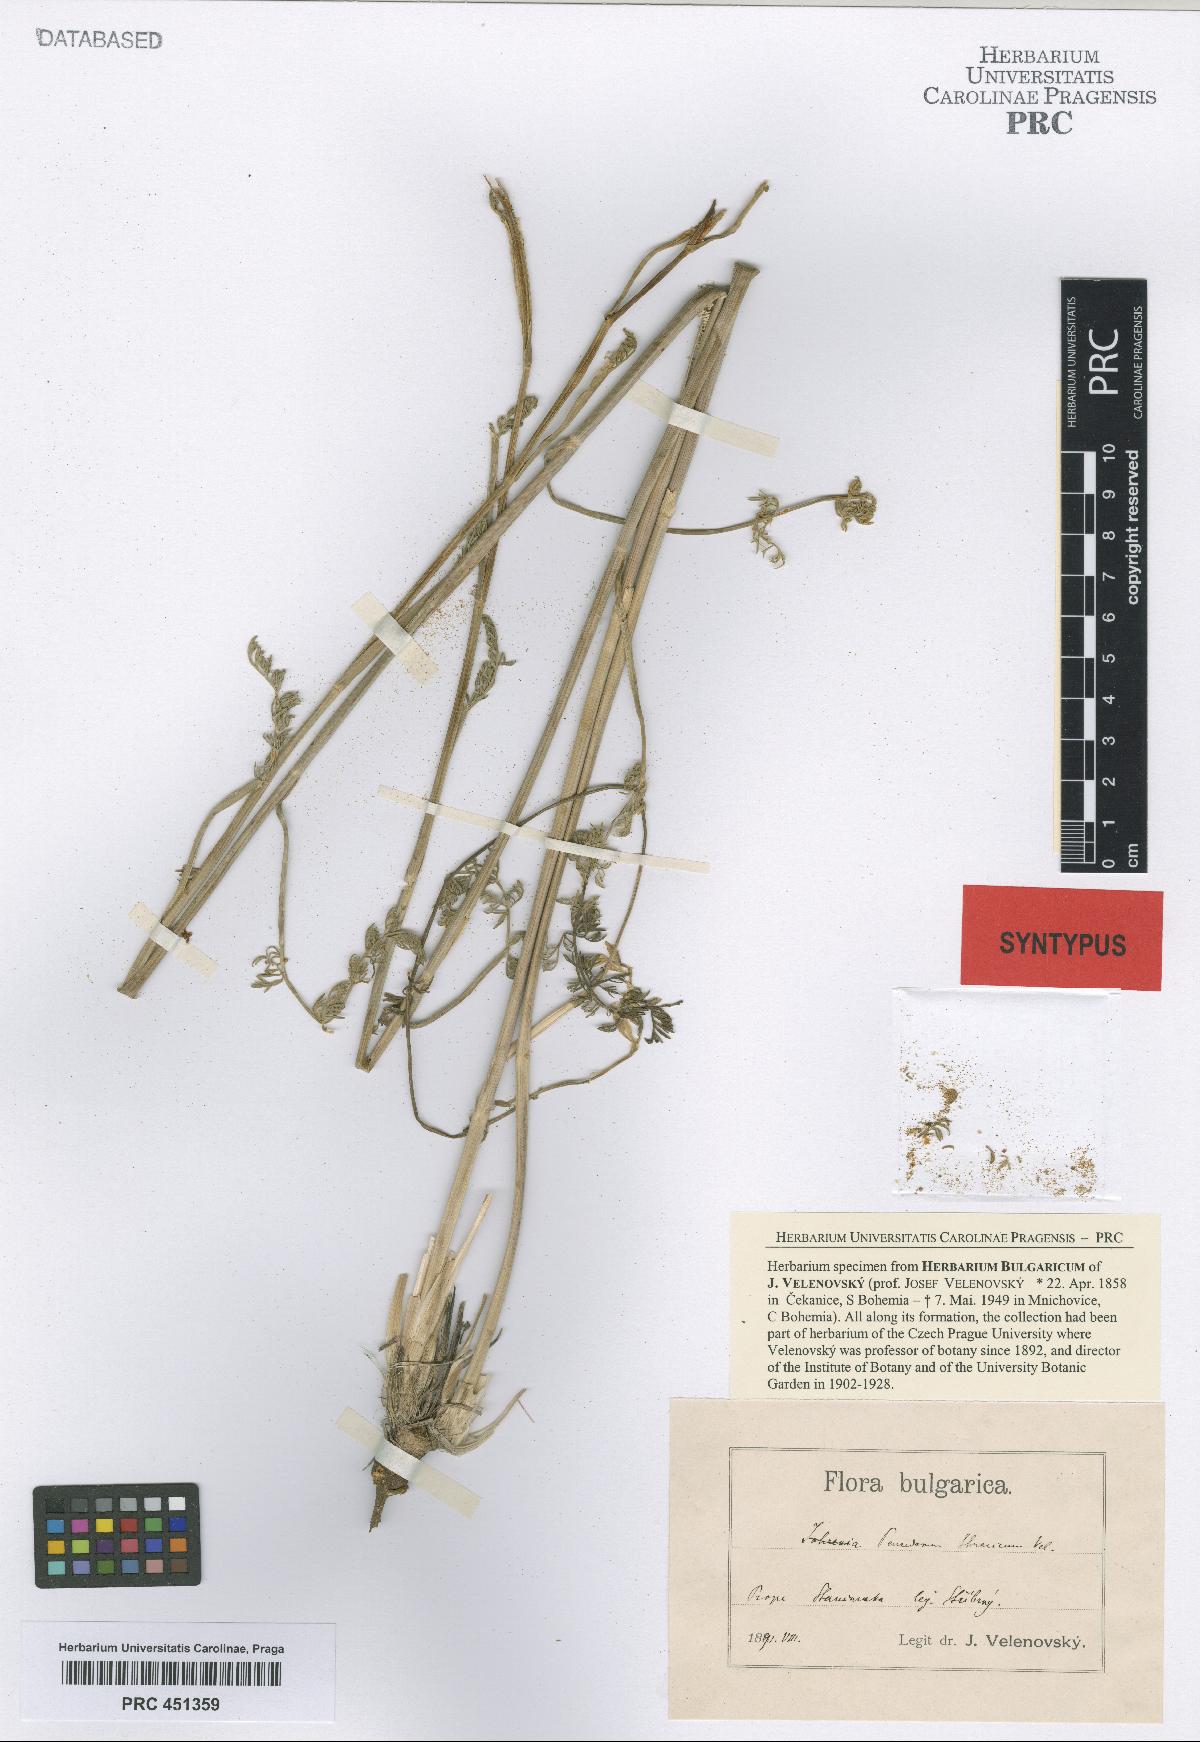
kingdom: Plantae
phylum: Tracheophyta
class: Magnoliopsida
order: Apiales
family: Apiaceae
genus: Dichoropetalum
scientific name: Dichoropetalum vittijugum
